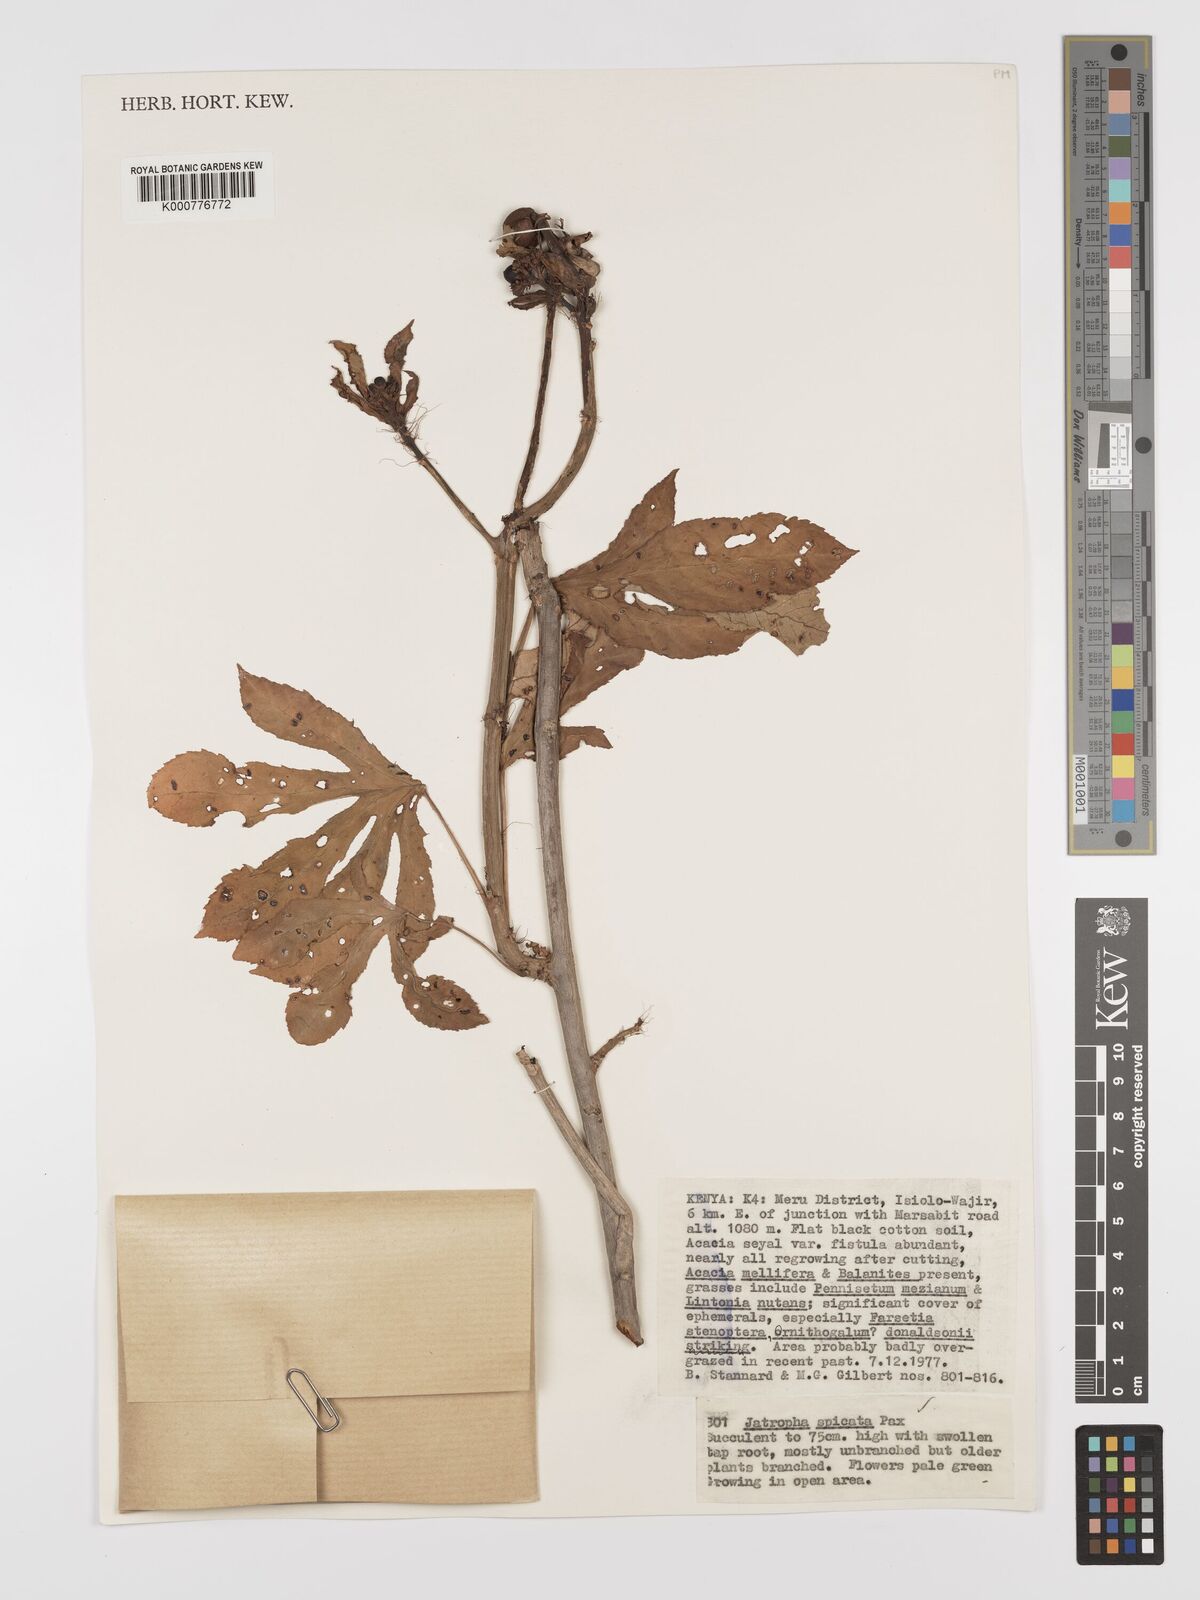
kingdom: Plantae
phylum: Tracheophyta
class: Magnoliopsida
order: Malpighiales
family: Euphorbiaceae
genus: Jatropha
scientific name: Jatropha spicata
